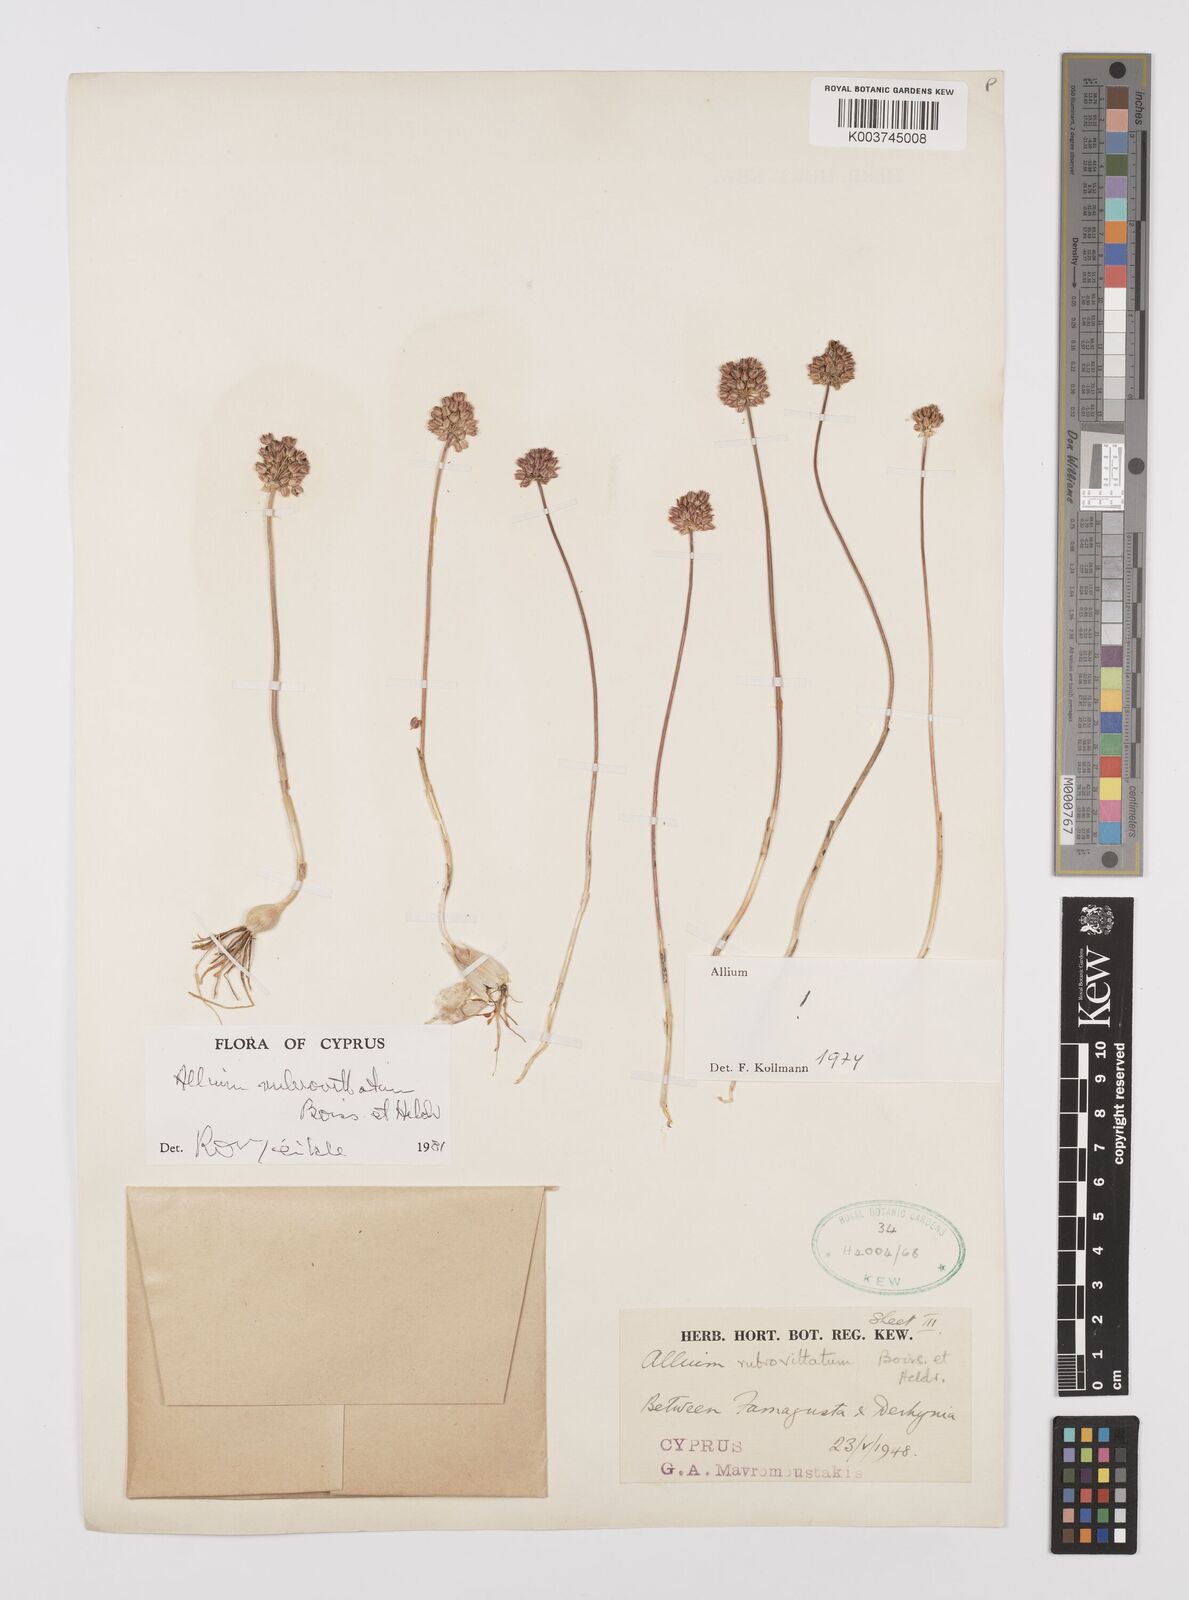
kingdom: Plantae
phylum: Tracheophyta
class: Liliopsida
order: Asparagales
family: Amaryllidaceae
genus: Allium
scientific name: Allium rubrovittatum
